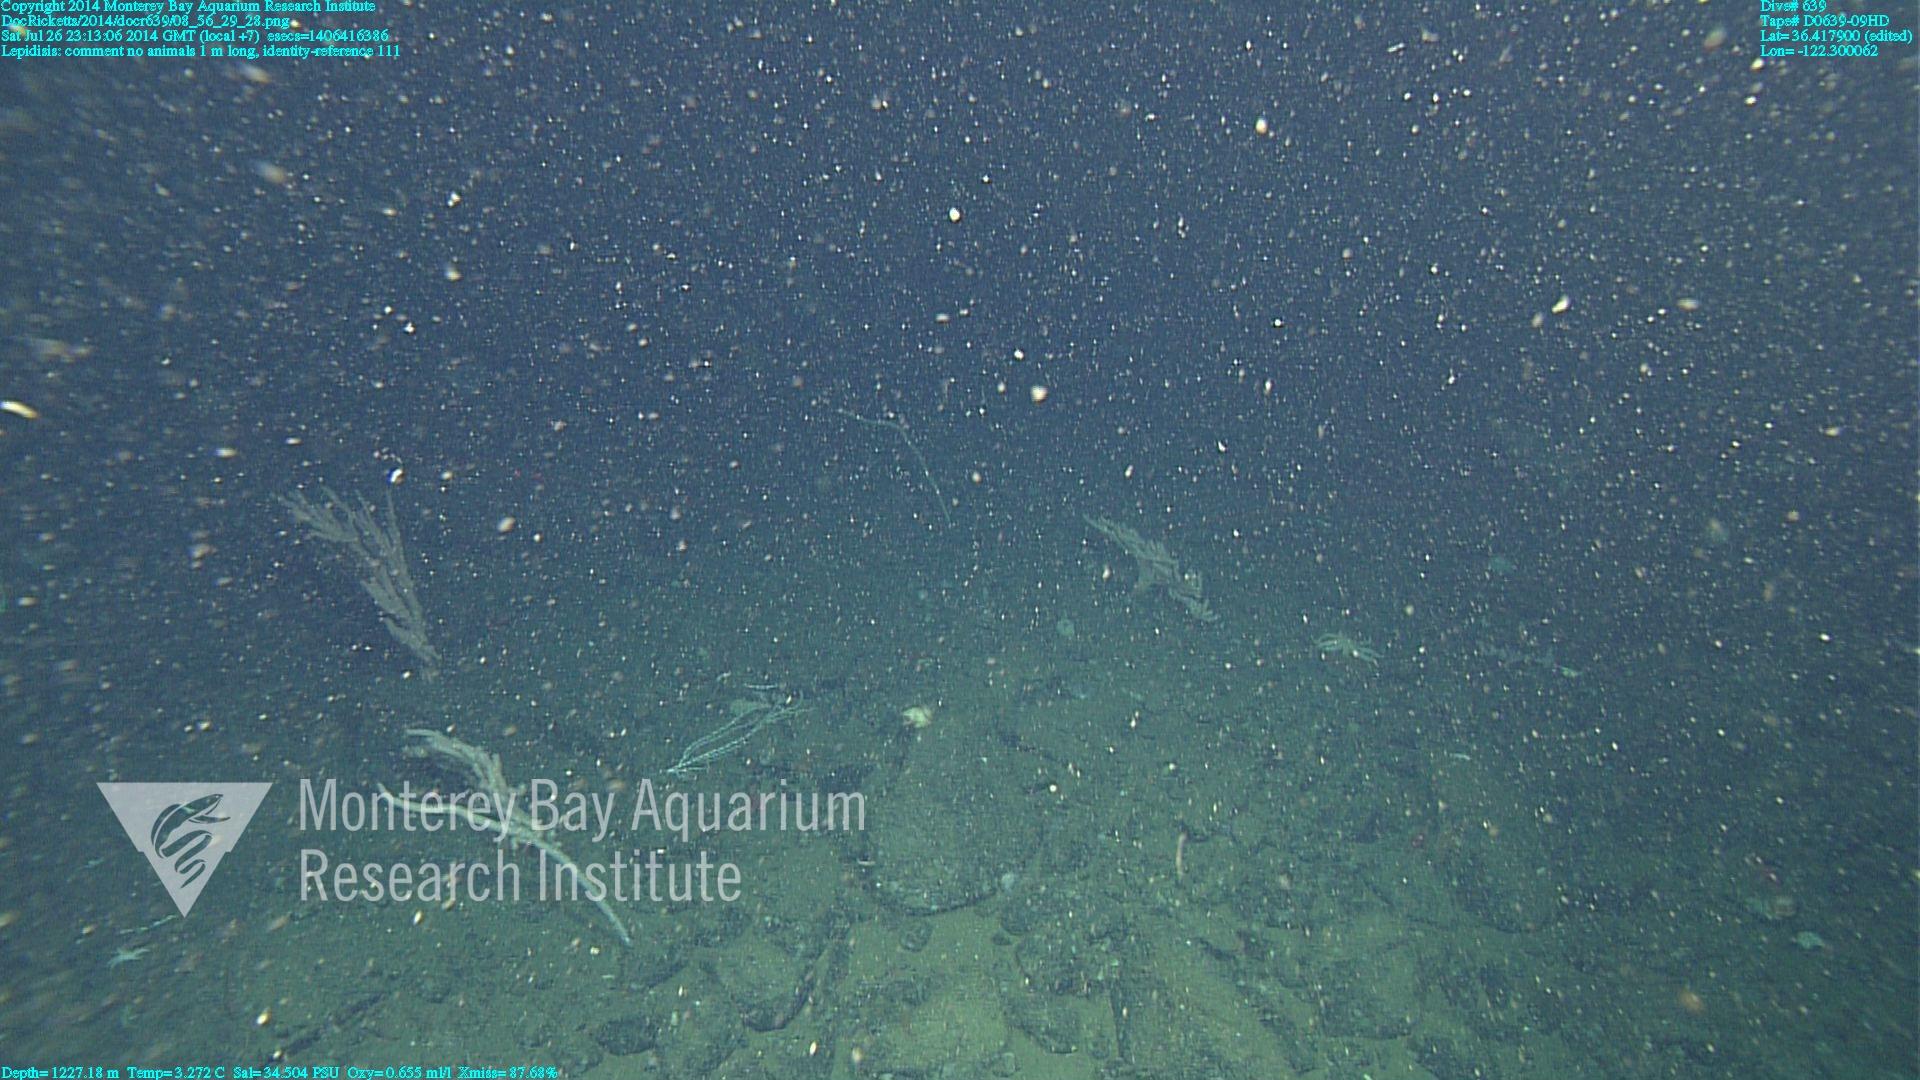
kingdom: Animalia
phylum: Cnidaria
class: Anthozoa
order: Scleralcyonacea
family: Keratoisididae
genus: Lepidisis
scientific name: Lepidisis
